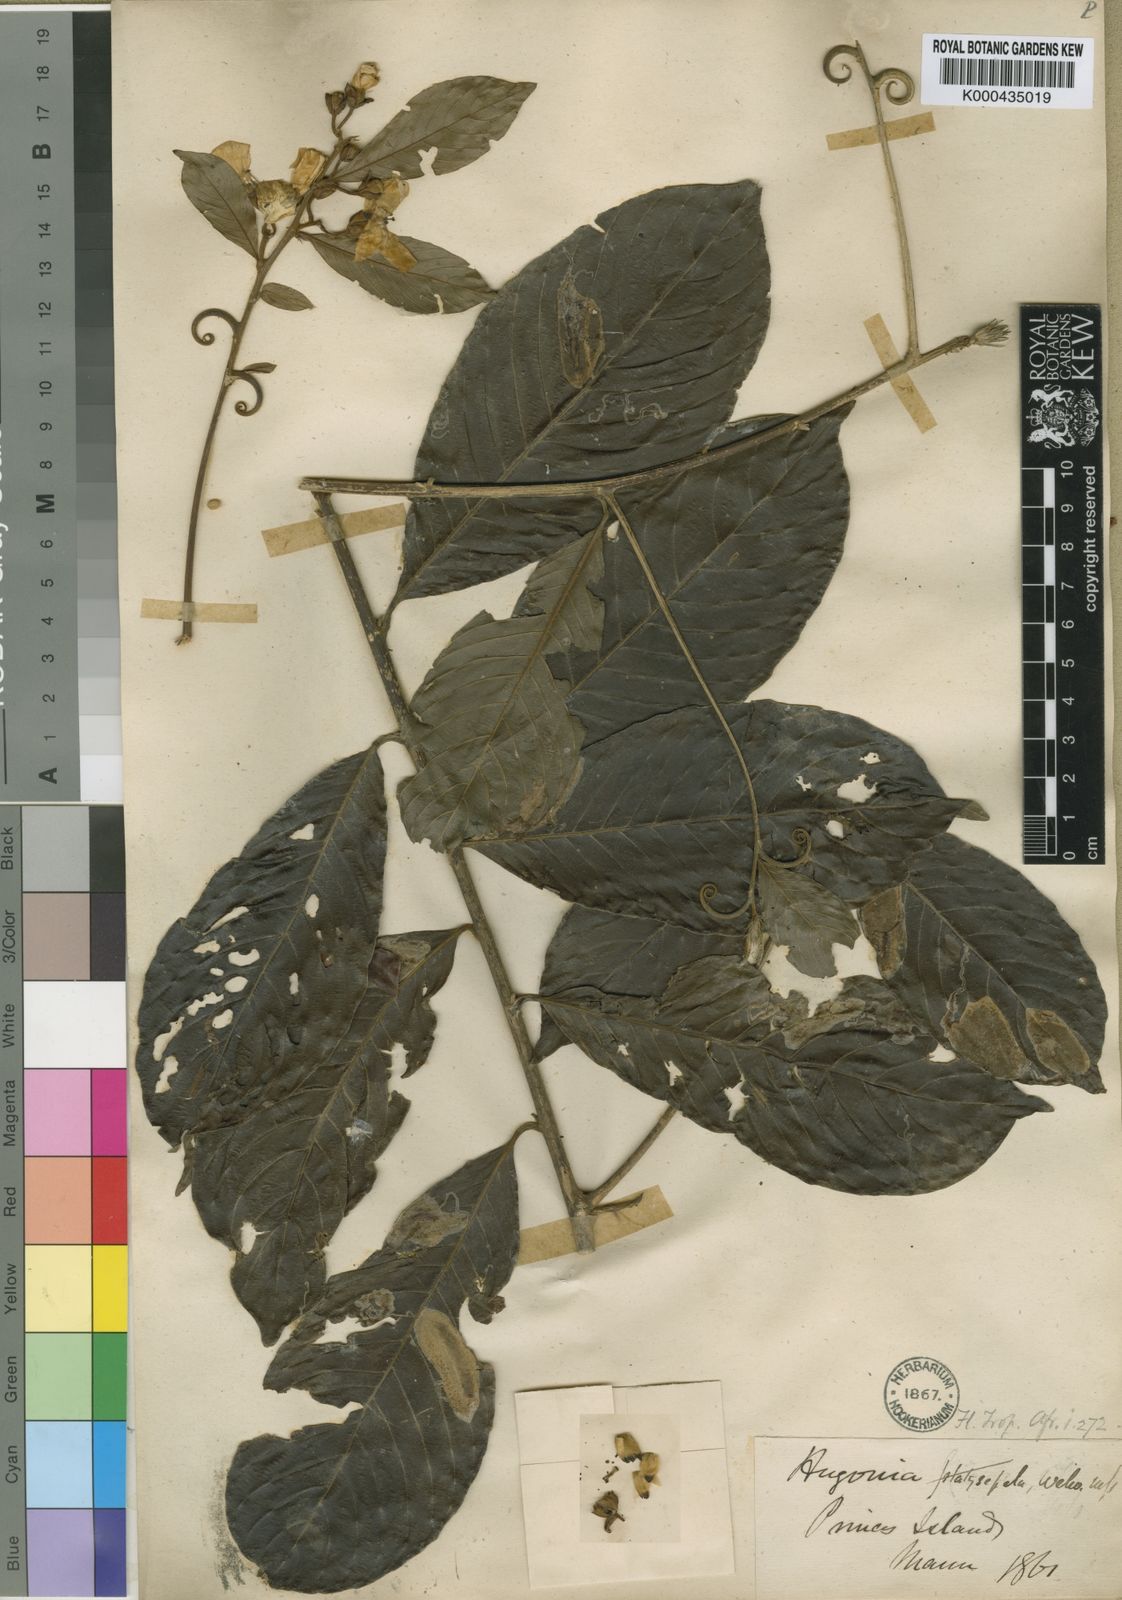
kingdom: Plantae
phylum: Tracheophyta
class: Magnoliopsida
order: Malpighiales
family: Linaceae
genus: Hugonia
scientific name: Hugonia platysepala
